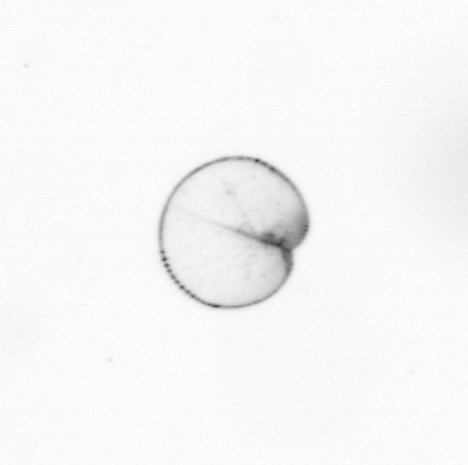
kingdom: Chromista
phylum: Myzozoa
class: Dinophyceae
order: Noctilucales
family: Noctilucaceae
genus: Noctiluca
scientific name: Noctiluca scintillans
